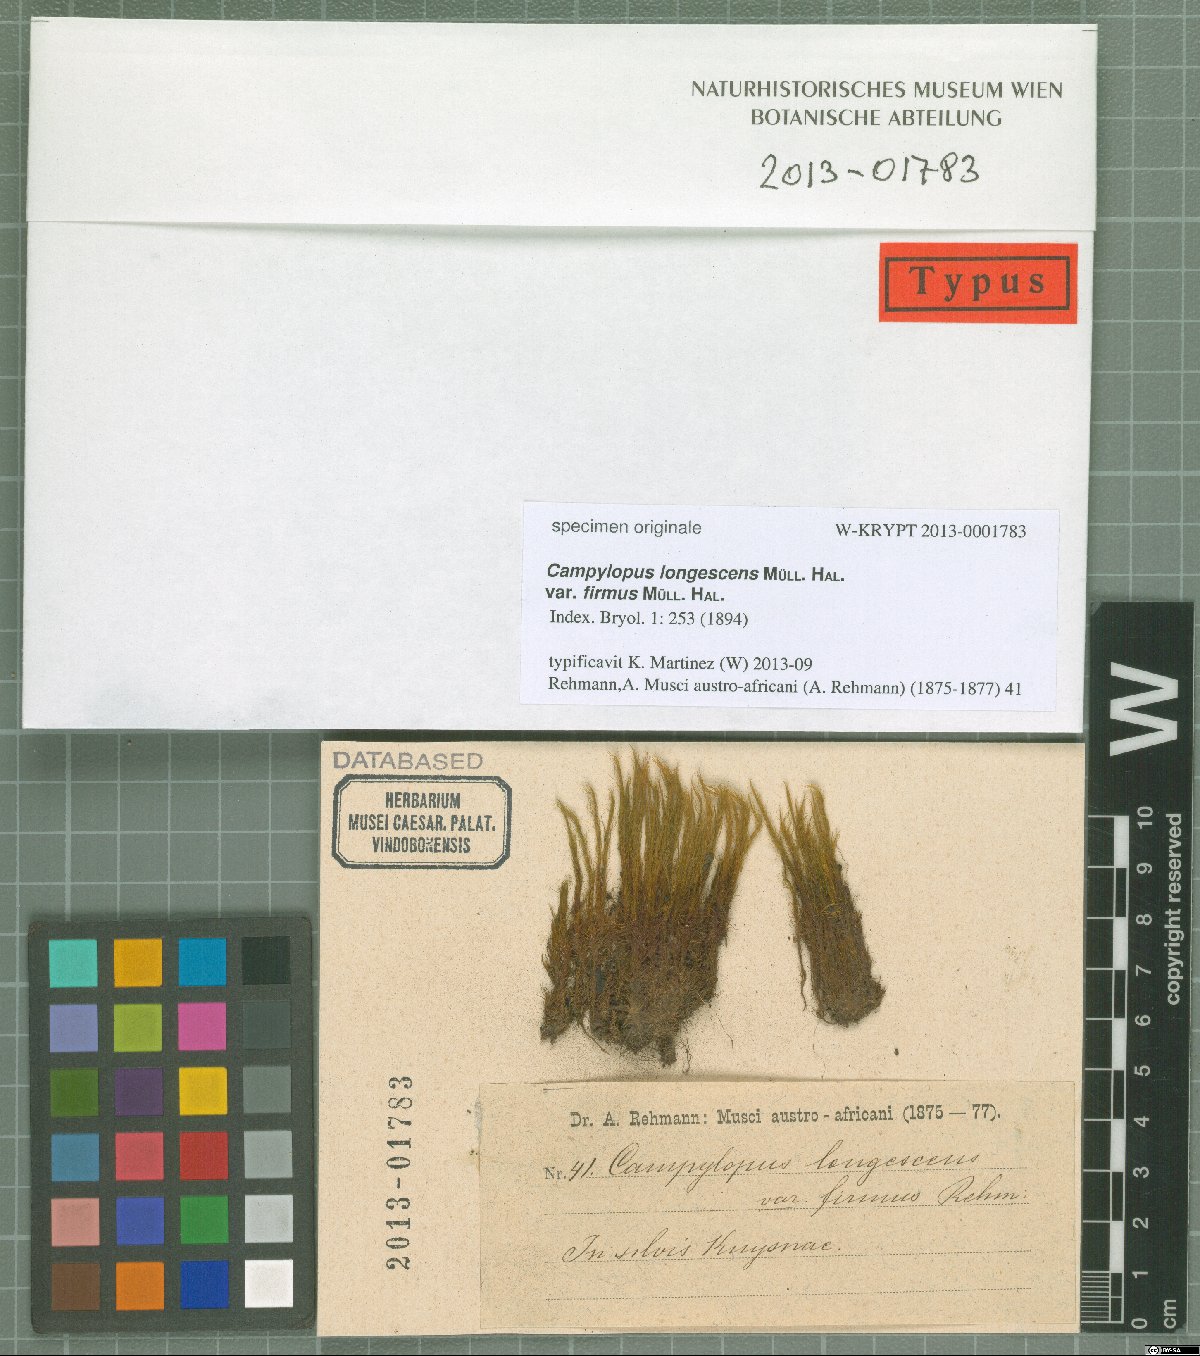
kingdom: Plantae
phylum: Bryophyta
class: Bryopsida
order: Dicranales
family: Leucobryaceae
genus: Campylopus
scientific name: Campylopus robillardii
